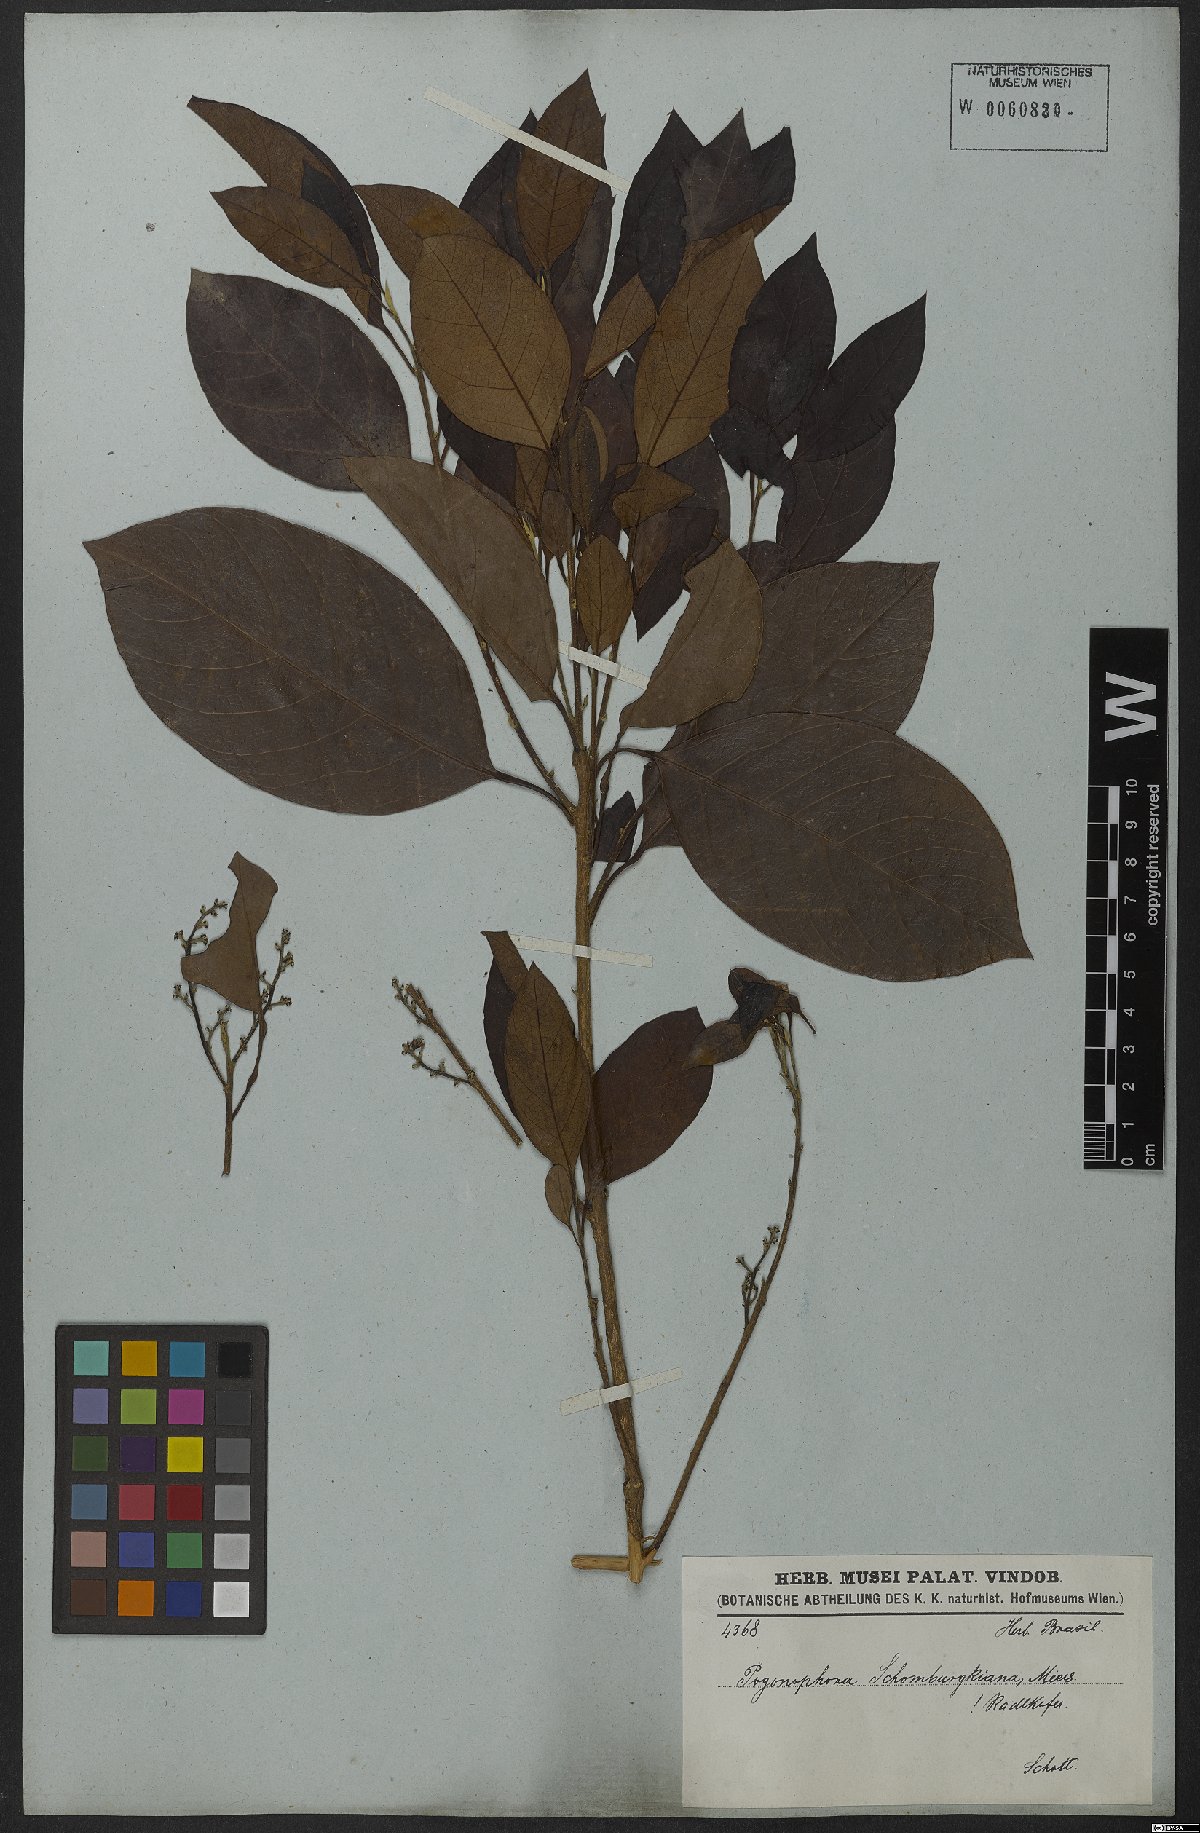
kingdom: Plantae
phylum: Tracheophyta
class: Magnoliopsida
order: Malpighiales
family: Peraceae
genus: Pogonophora
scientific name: Pogonophora schomburgkiana
